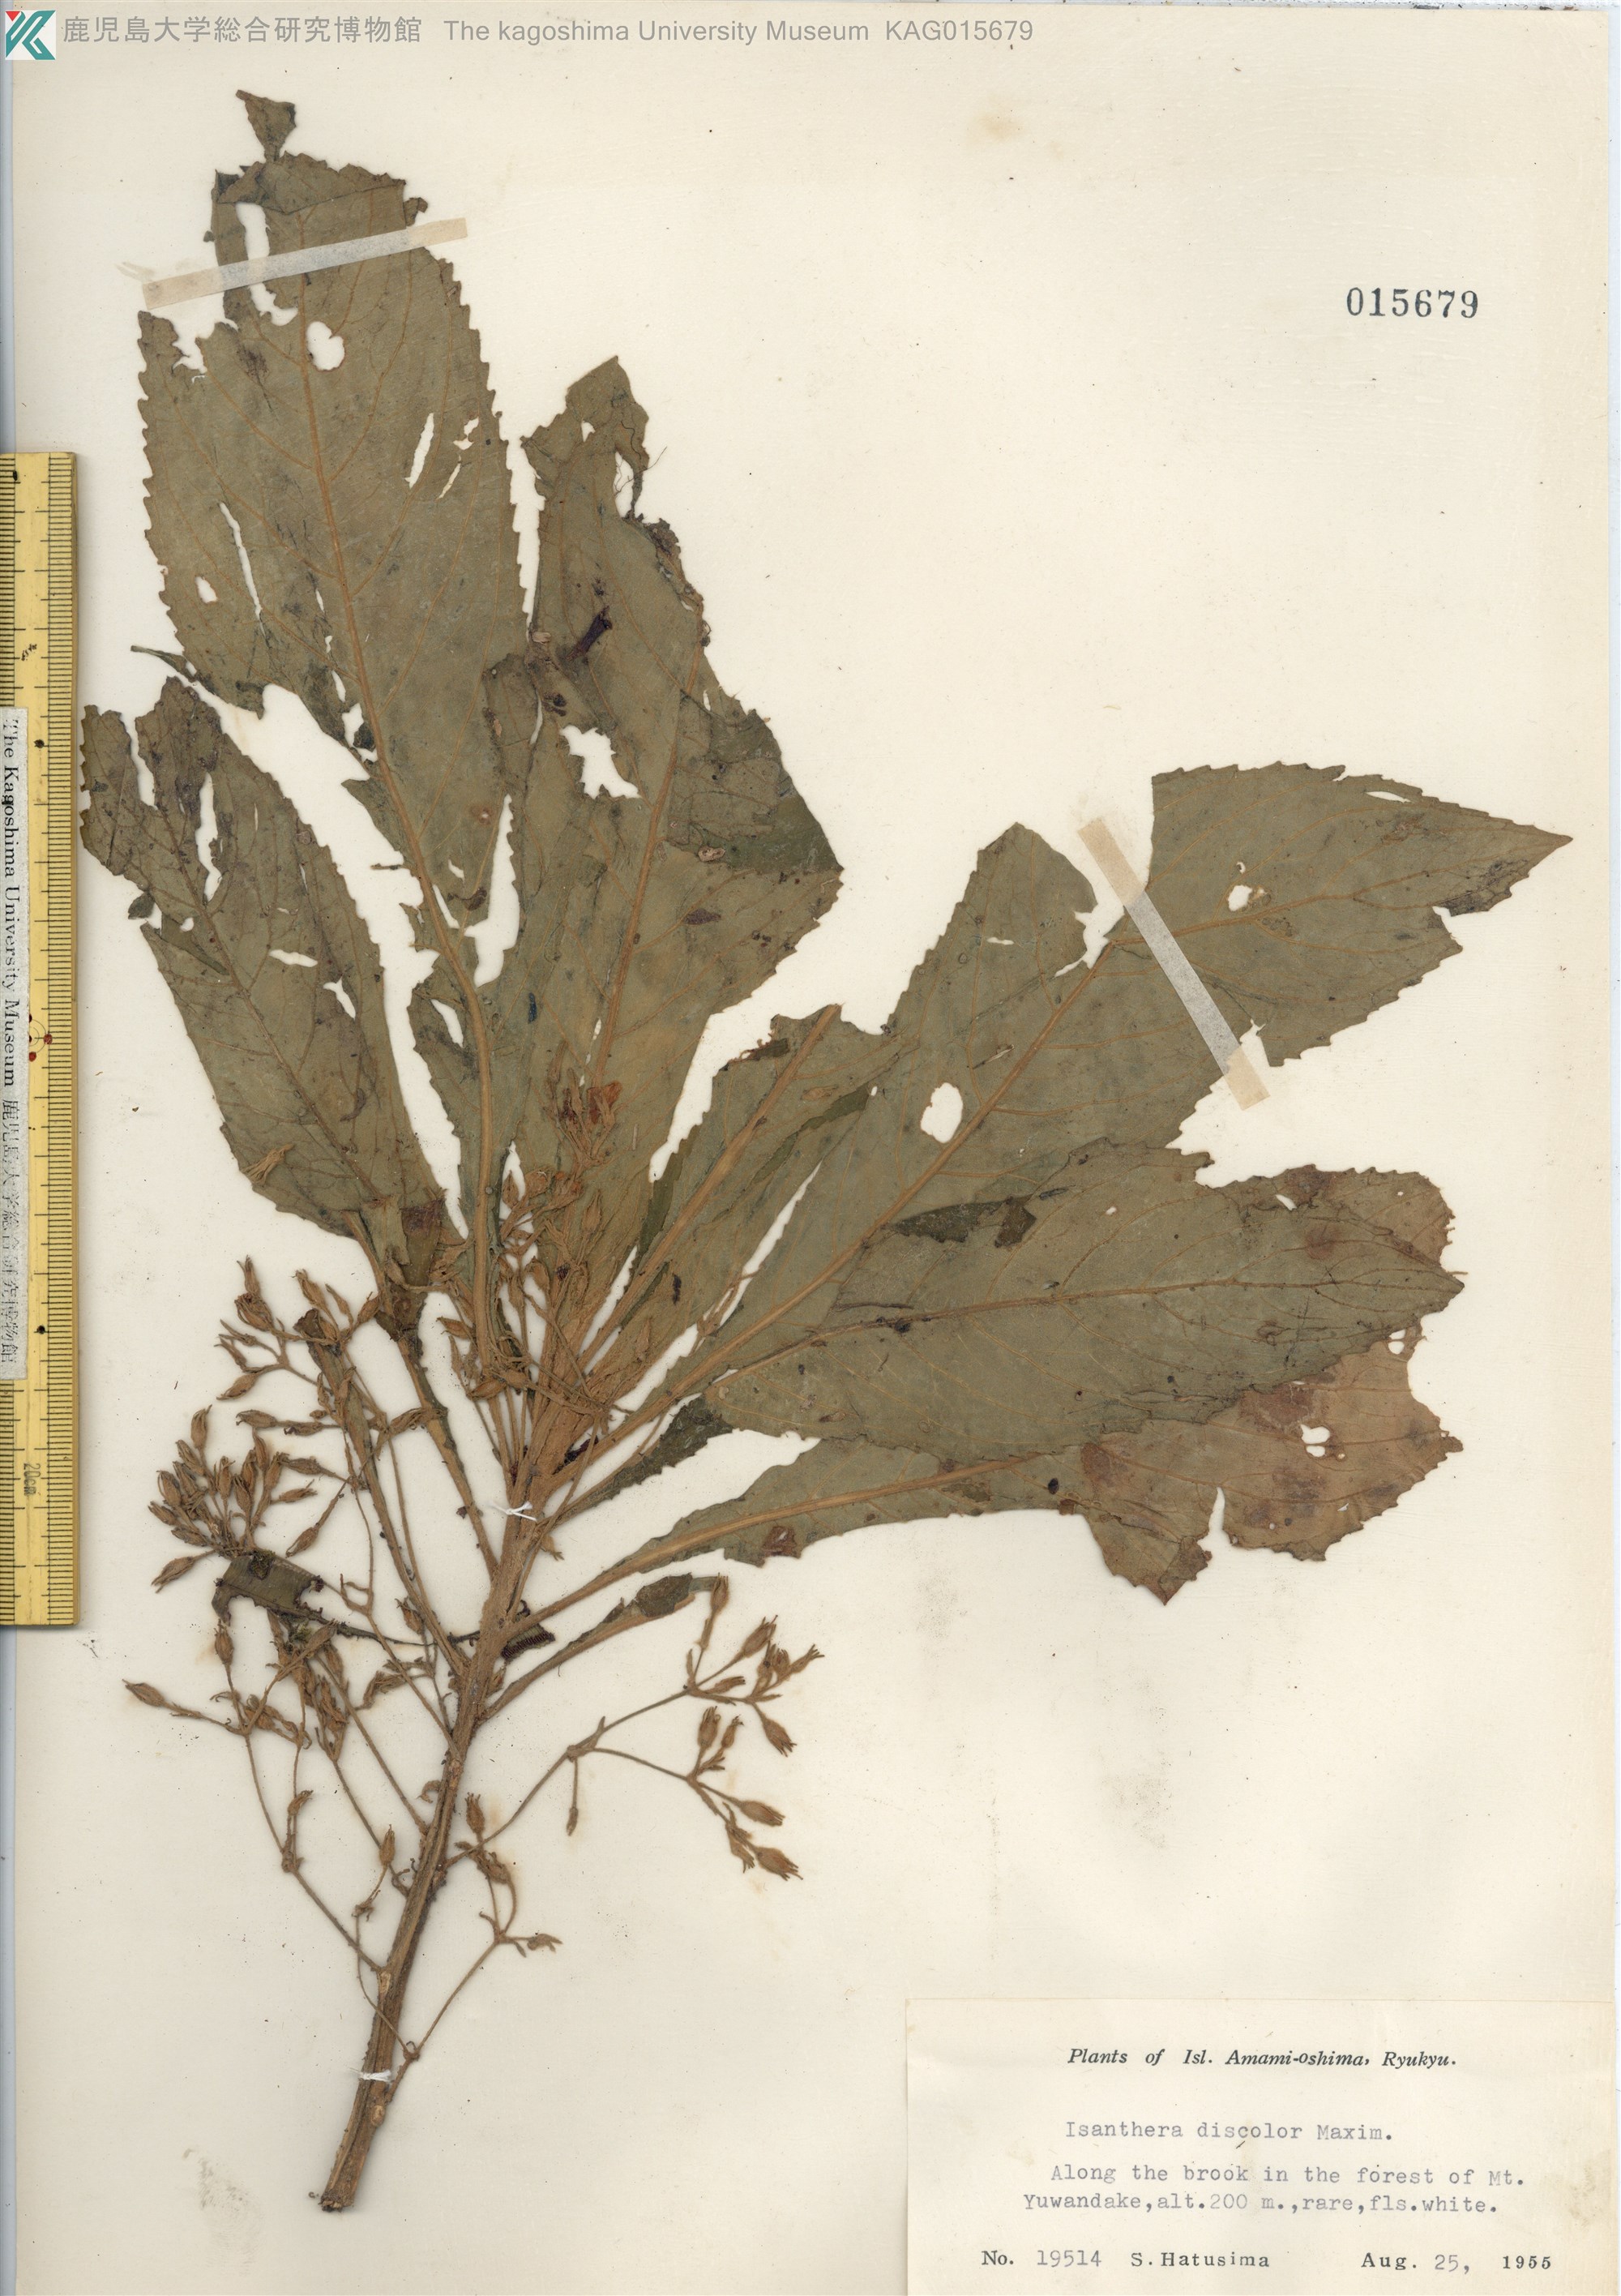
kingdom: Plantae
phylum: Tracheophyta
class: Magnoliopsida
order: Lamiales
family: Gesneriaceae
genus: Rhynchotechum
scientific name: Rhynchotechum discolor
